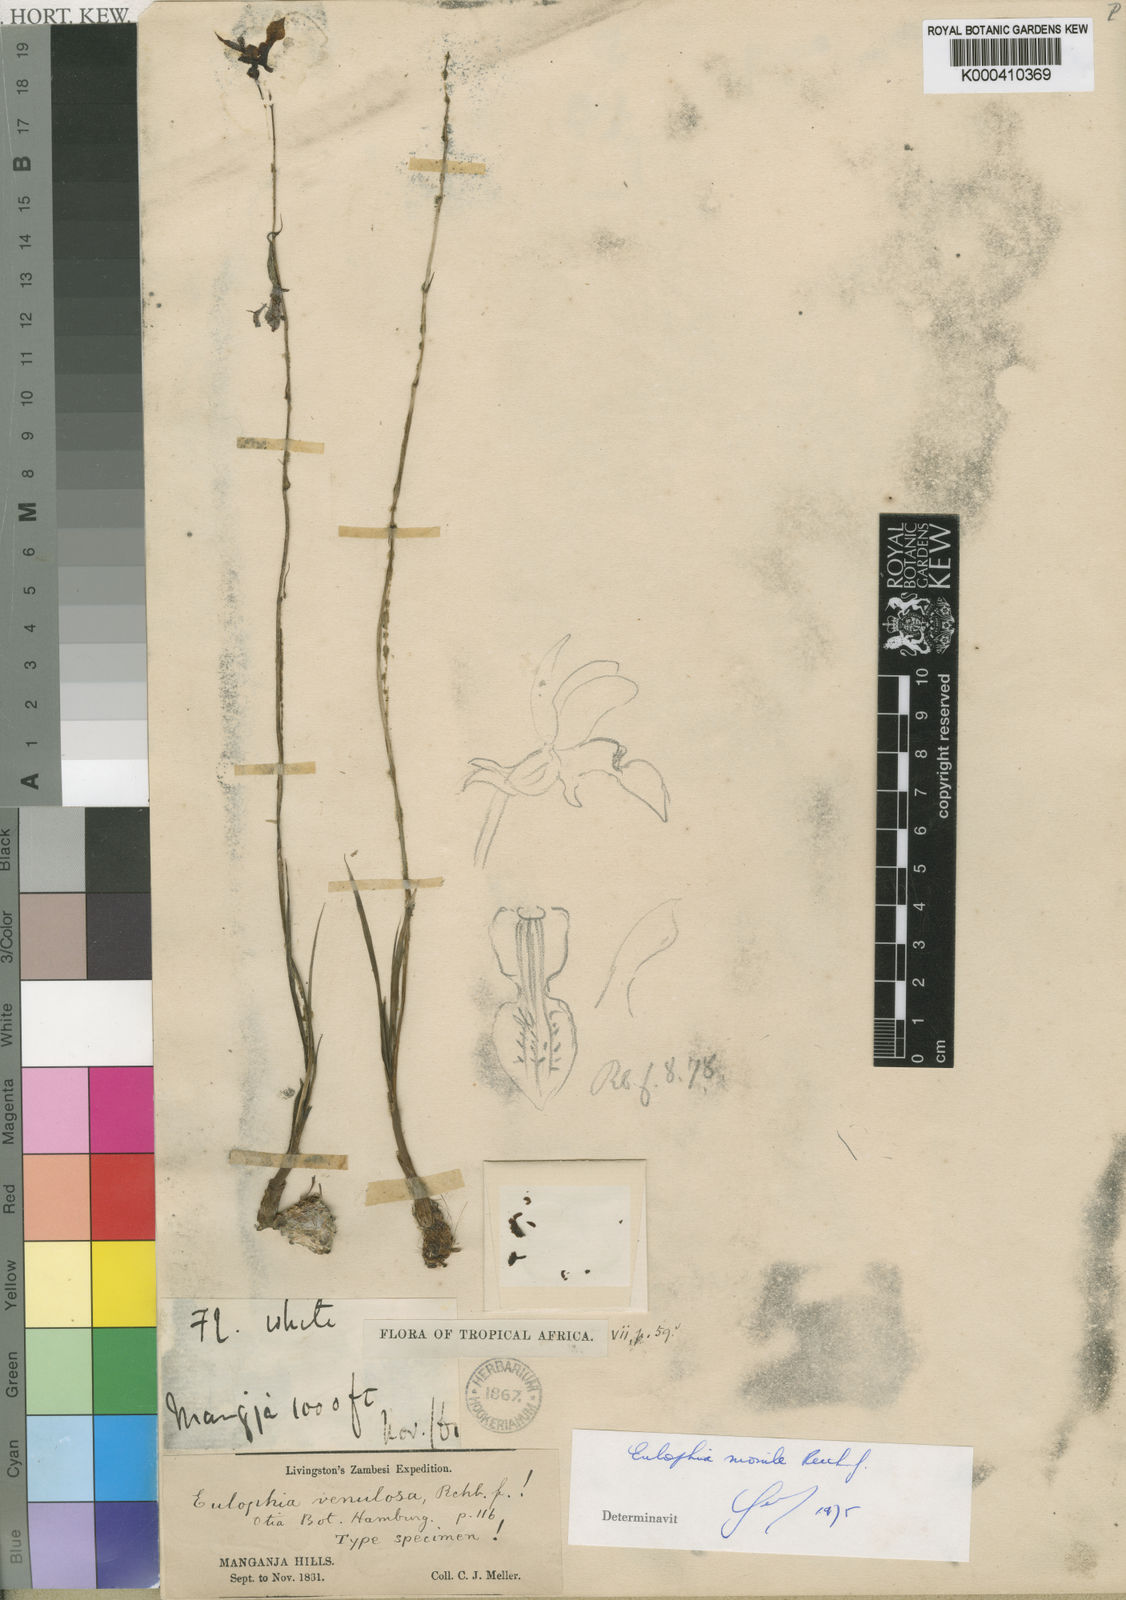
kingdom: Plantae
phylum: Tracheophyta
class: Liliopsida
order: Asparagales
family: Orchidaceae
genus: Eulophia
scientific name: Eulophia venulosa
